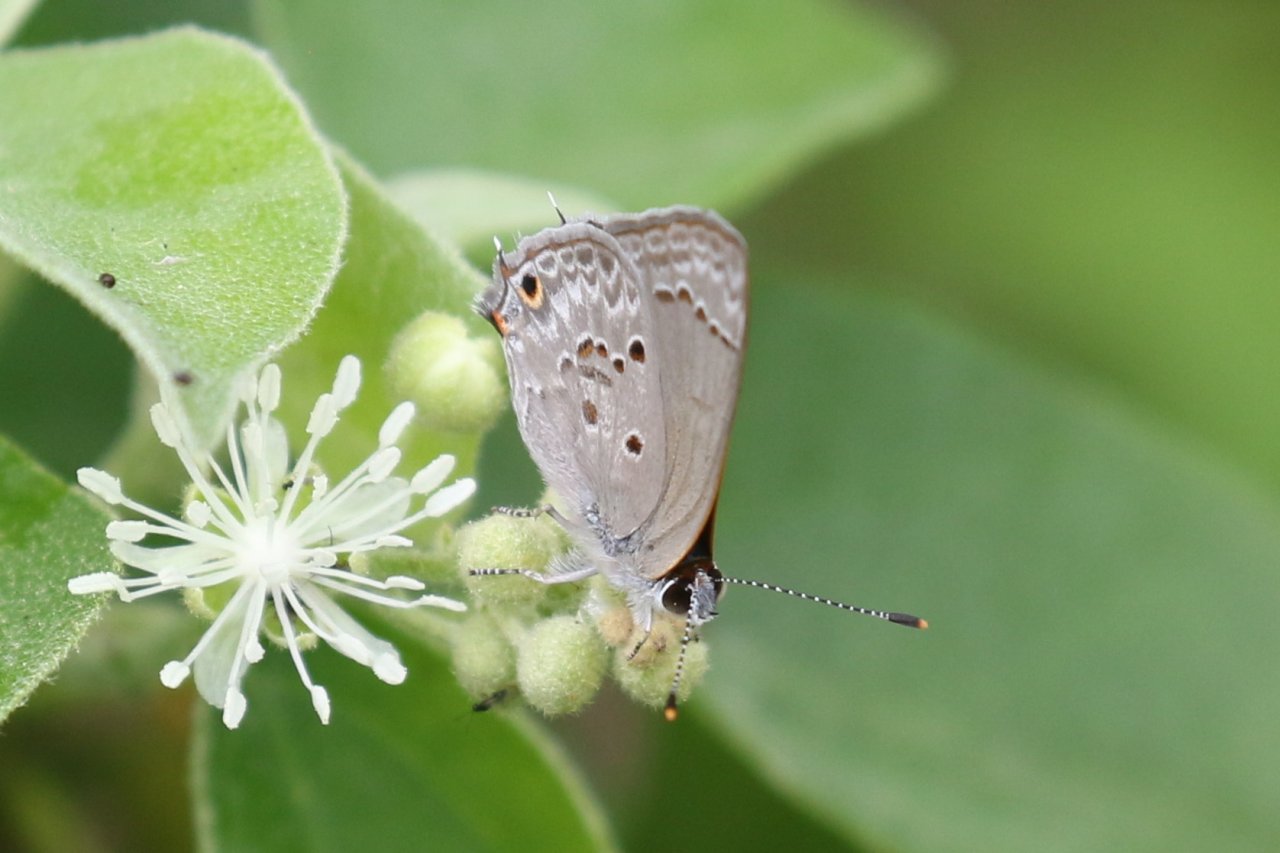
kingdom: Animalia
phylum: Arthropoda
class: Insecta
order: Lepidoptera
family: Lycaenidae
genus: Callicista
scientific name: Callicista columella
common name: Mallow Scrub-Hairstreak
